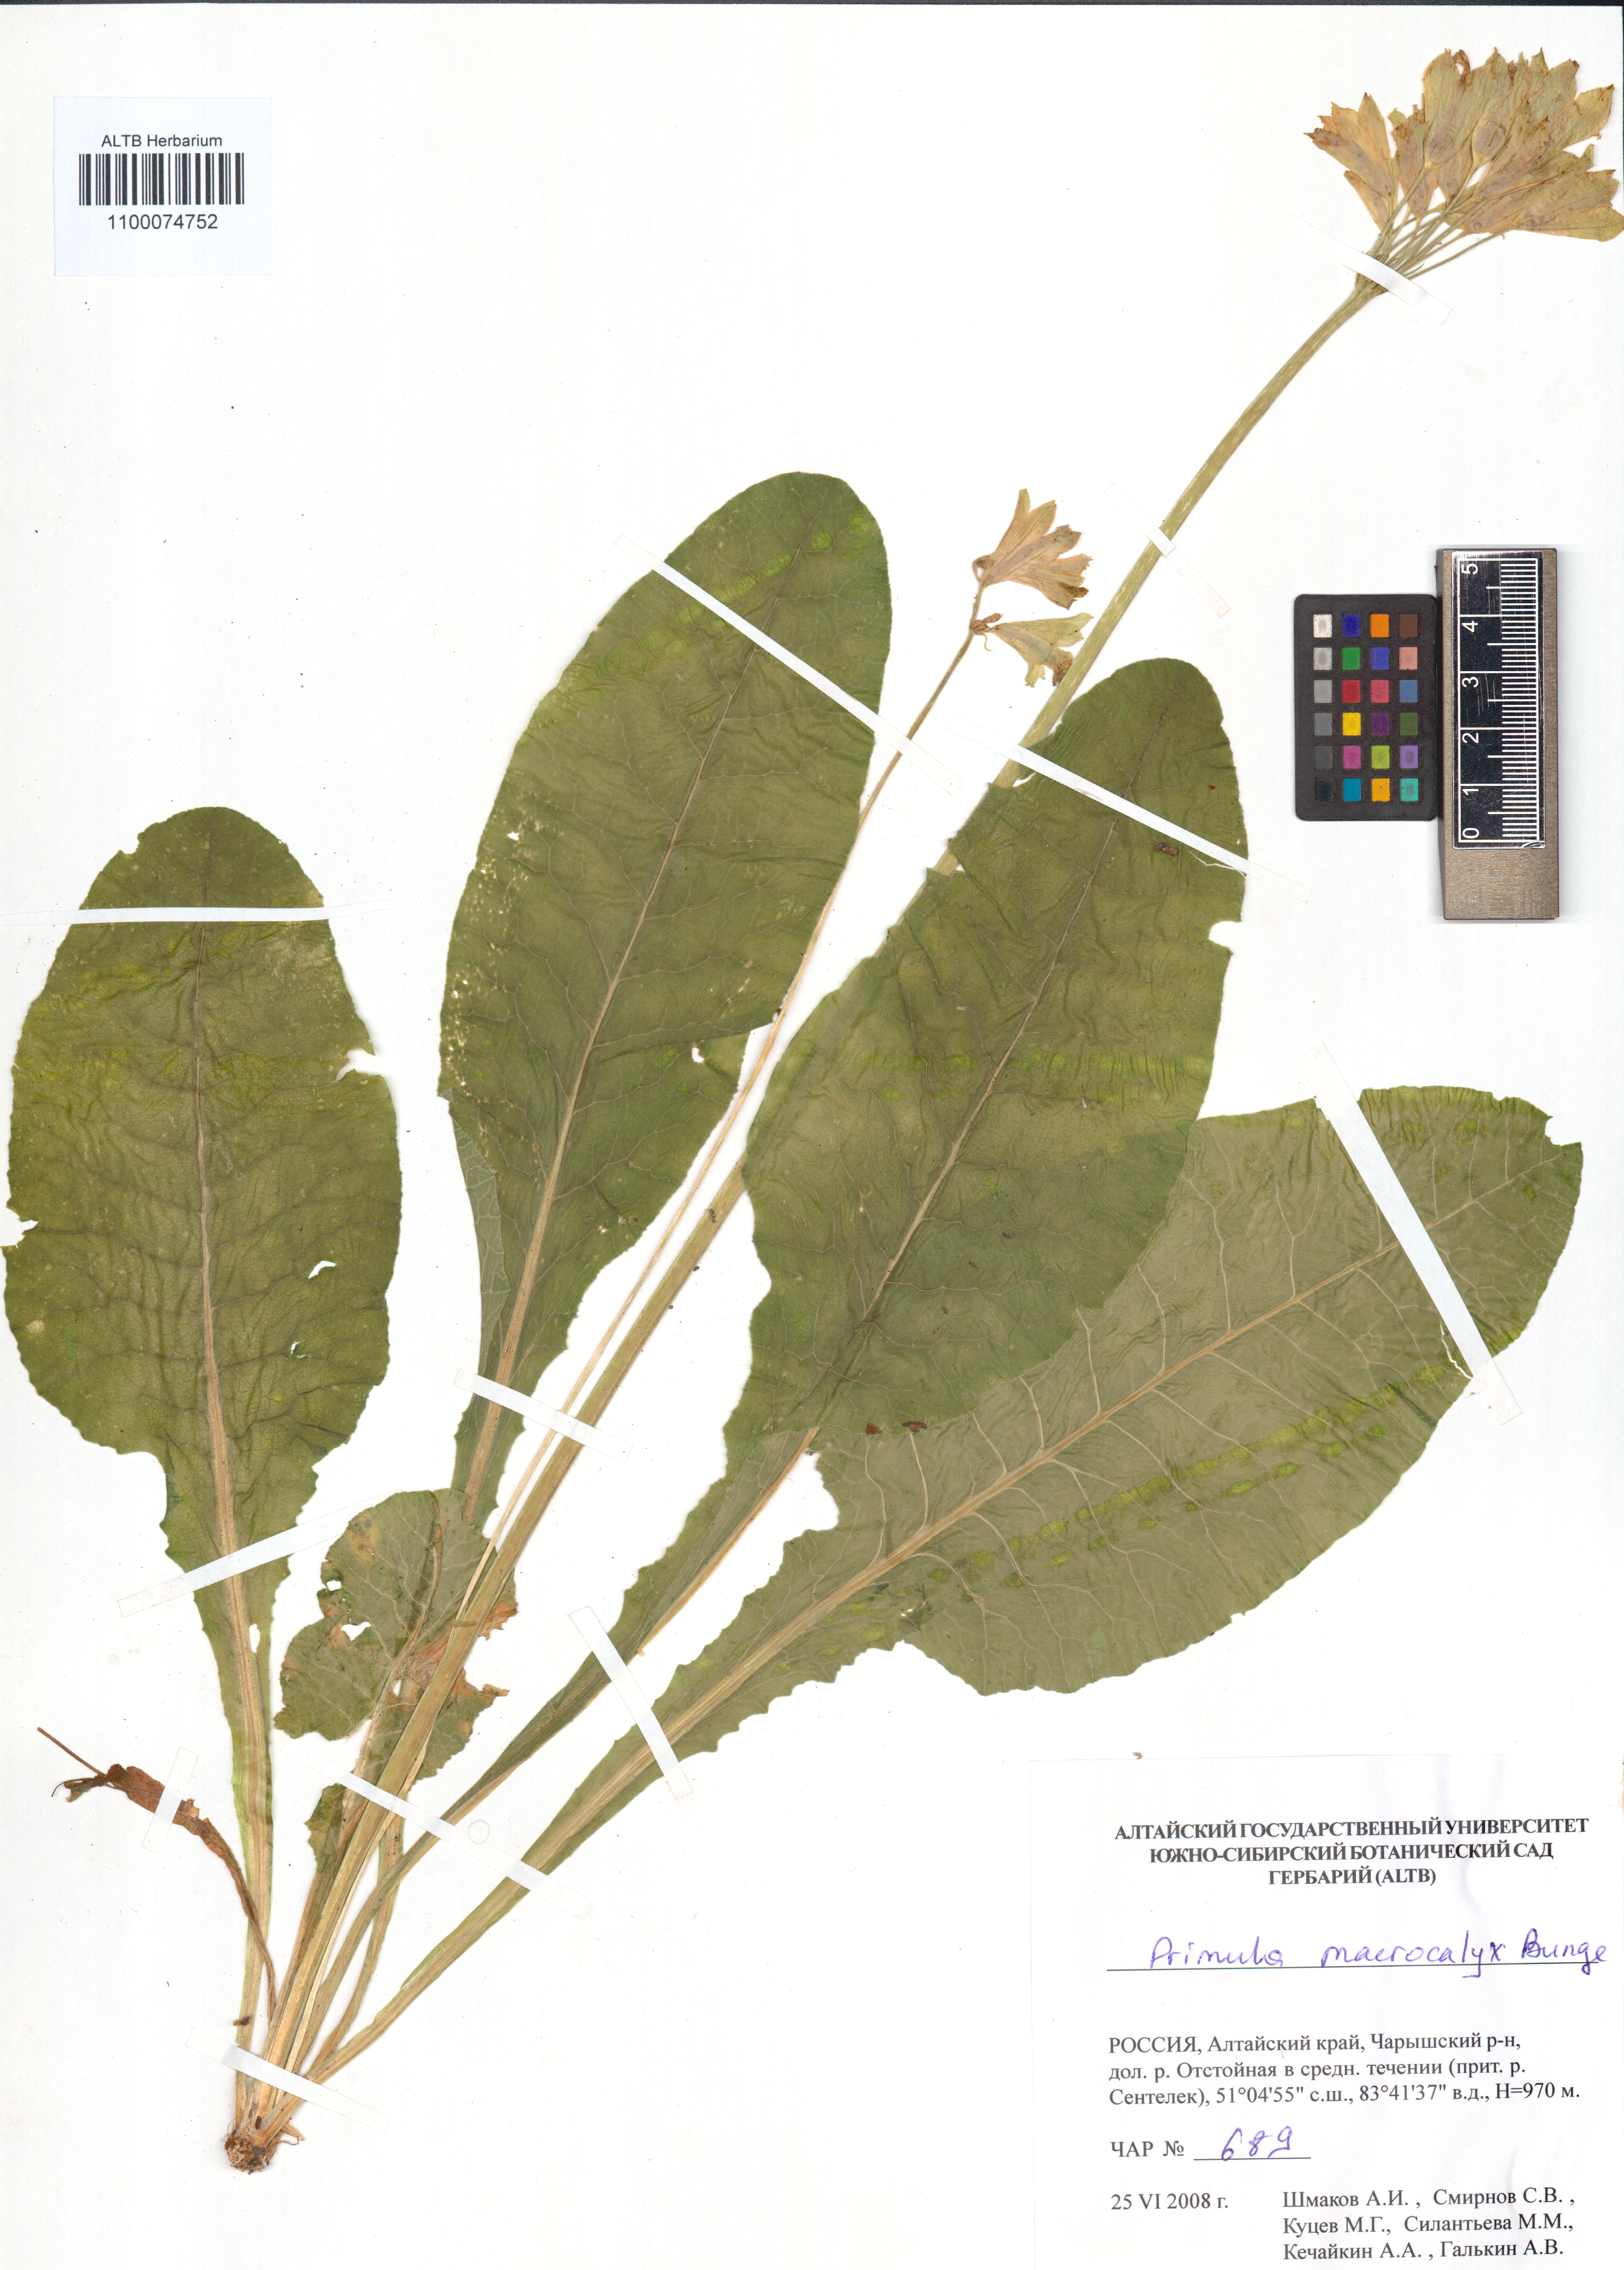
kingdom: Plantae
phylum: Tracheophyta
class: Magnoliopsida
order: Ericales
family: Primulaceae
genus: Primula
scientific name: Primula veris
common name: Cowslip
